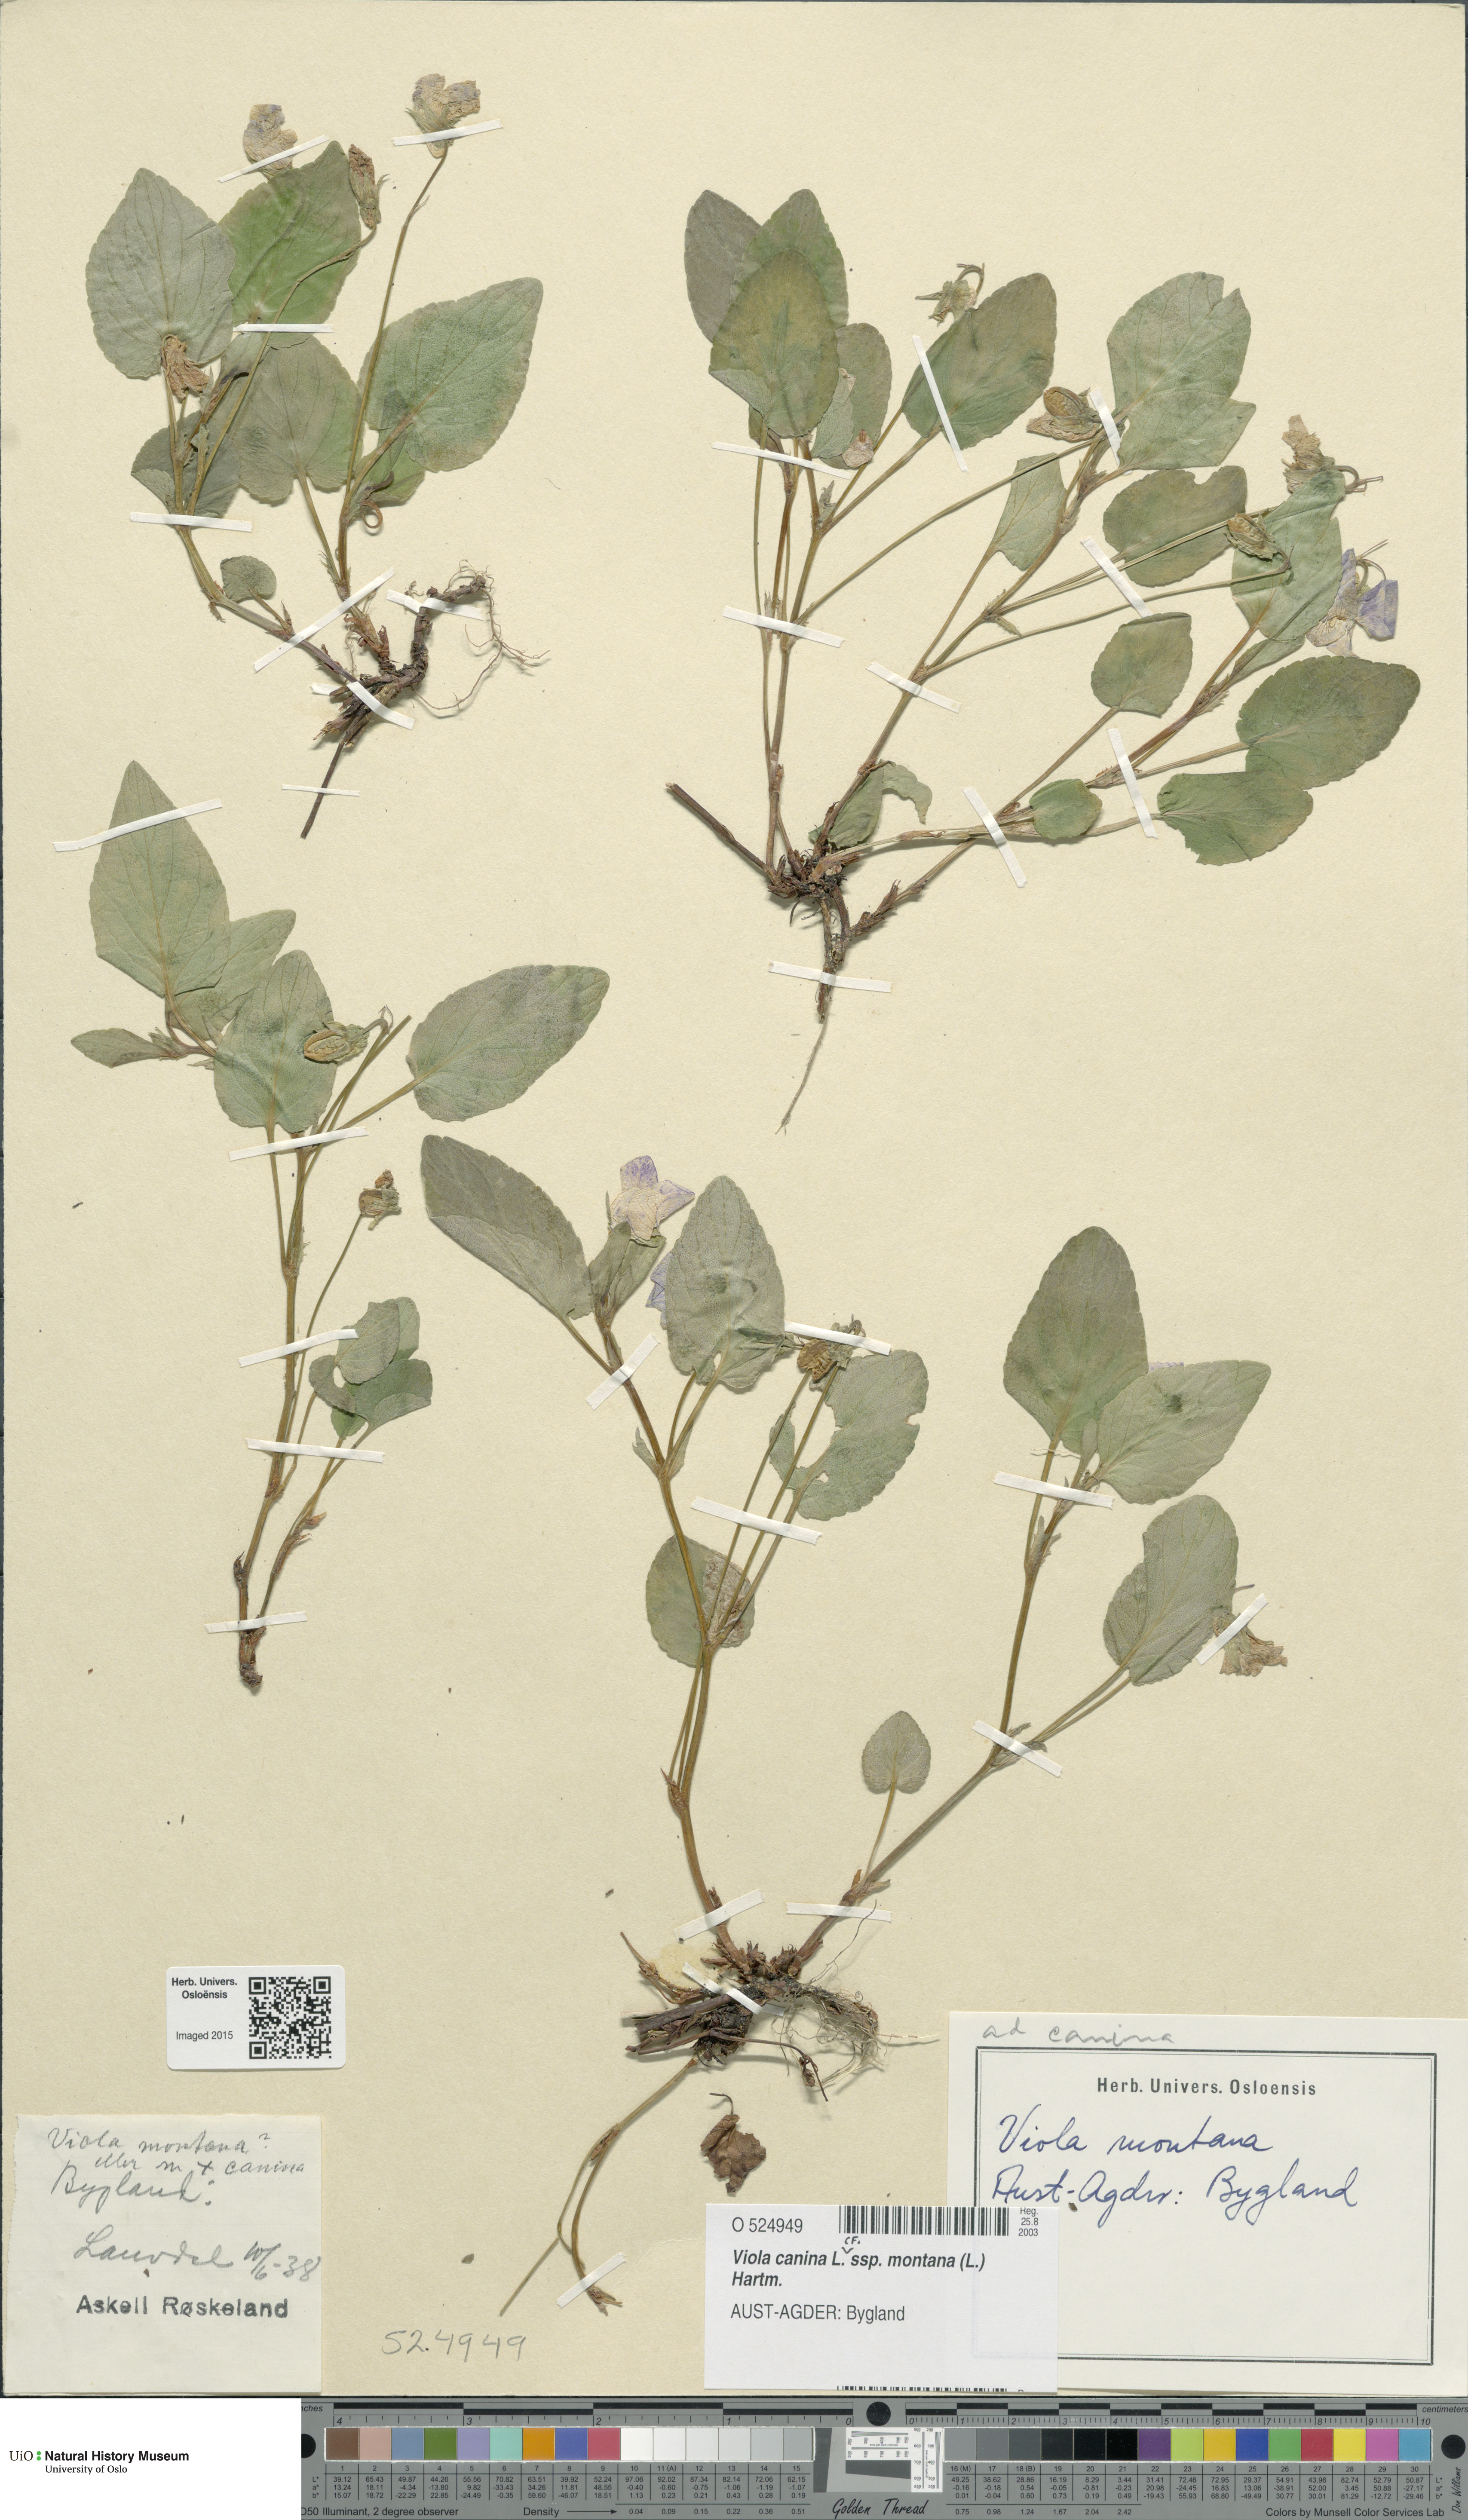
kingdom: Plantae
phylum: Tracheophyta
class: Magnoliopsida
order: Malpighiales
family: Violaceae
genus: Viola
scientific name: Viola ruppii
